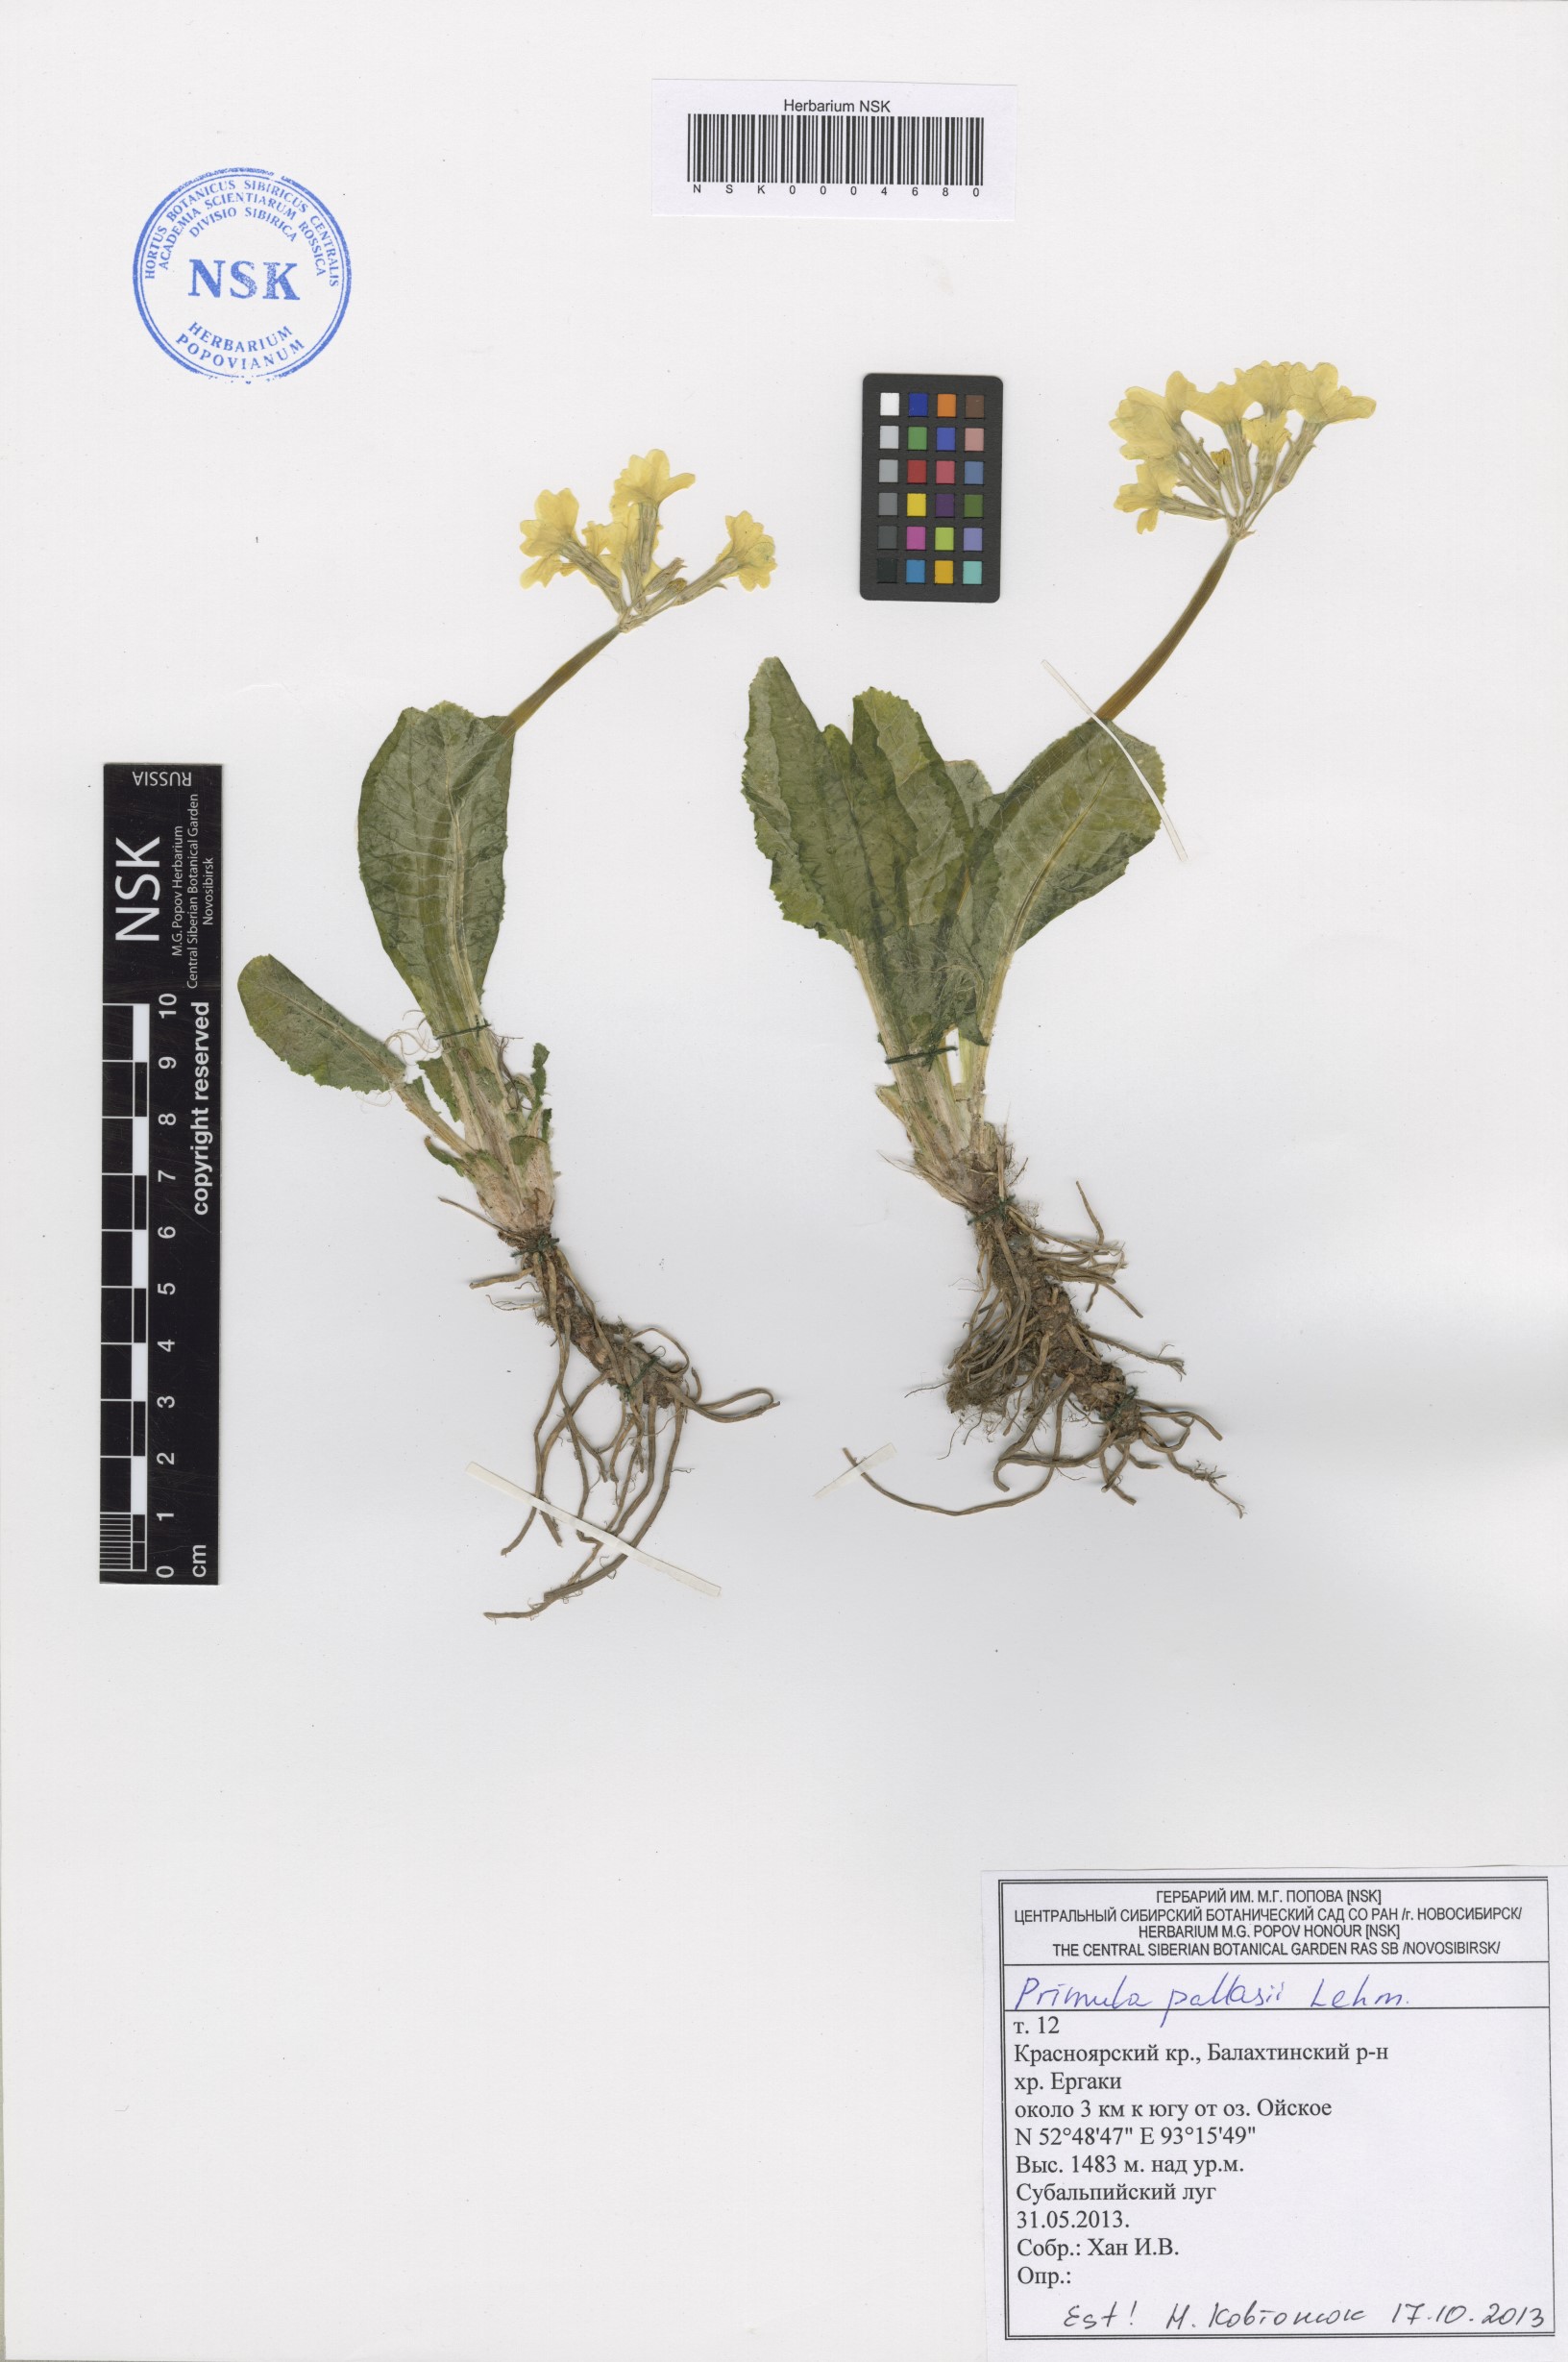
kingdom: Plantae
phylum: Tracheophyta
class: Magnoliopsida
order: Ericales
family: Primulaceae
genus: Primula
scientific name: Primula elatior
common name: Oxlip
